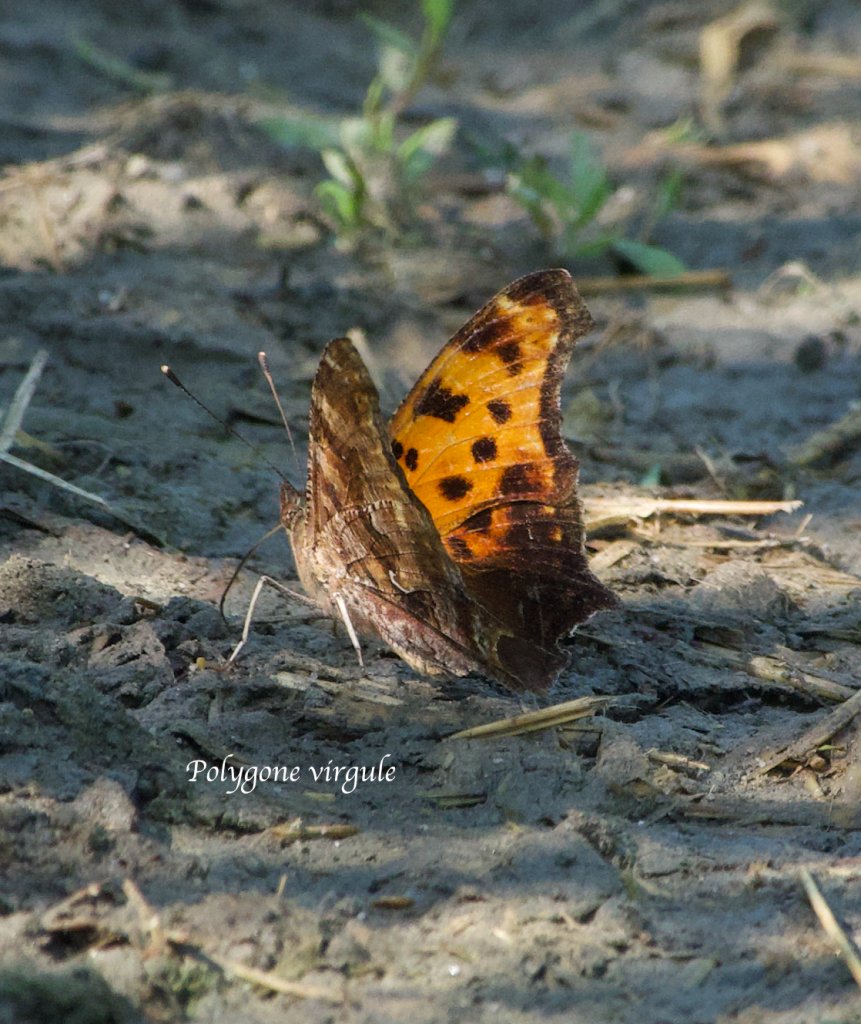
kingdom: Animalia
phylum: Arthropoda
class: Insecta
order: Lepidoptera
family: Nymphalidae
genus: Polygonia
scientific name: Polygonia comma
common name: Eastern Comma
